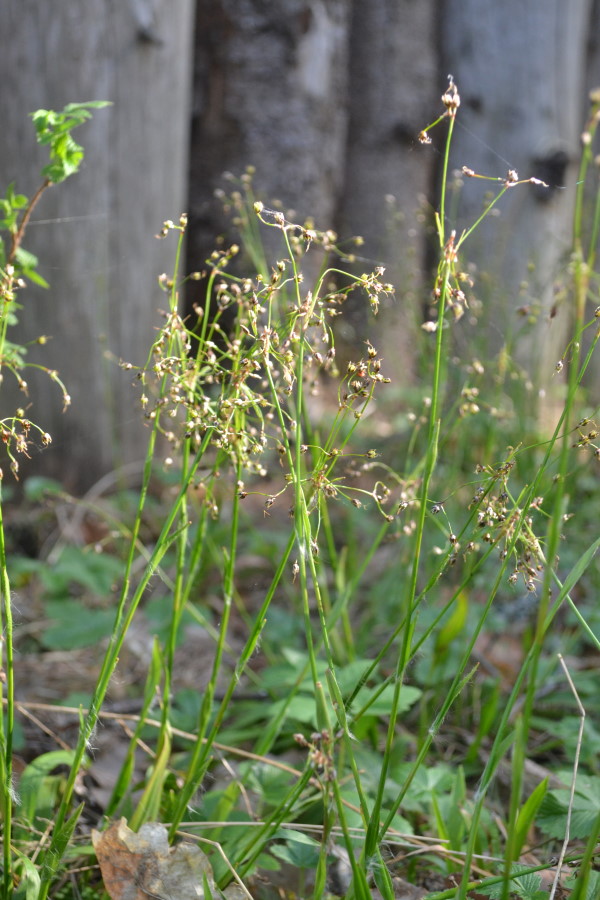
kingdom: Plantae
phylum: Tracheophyta
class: Liliopsida
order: Poales
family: Cyperaceae
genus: Carex
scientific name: Carex
